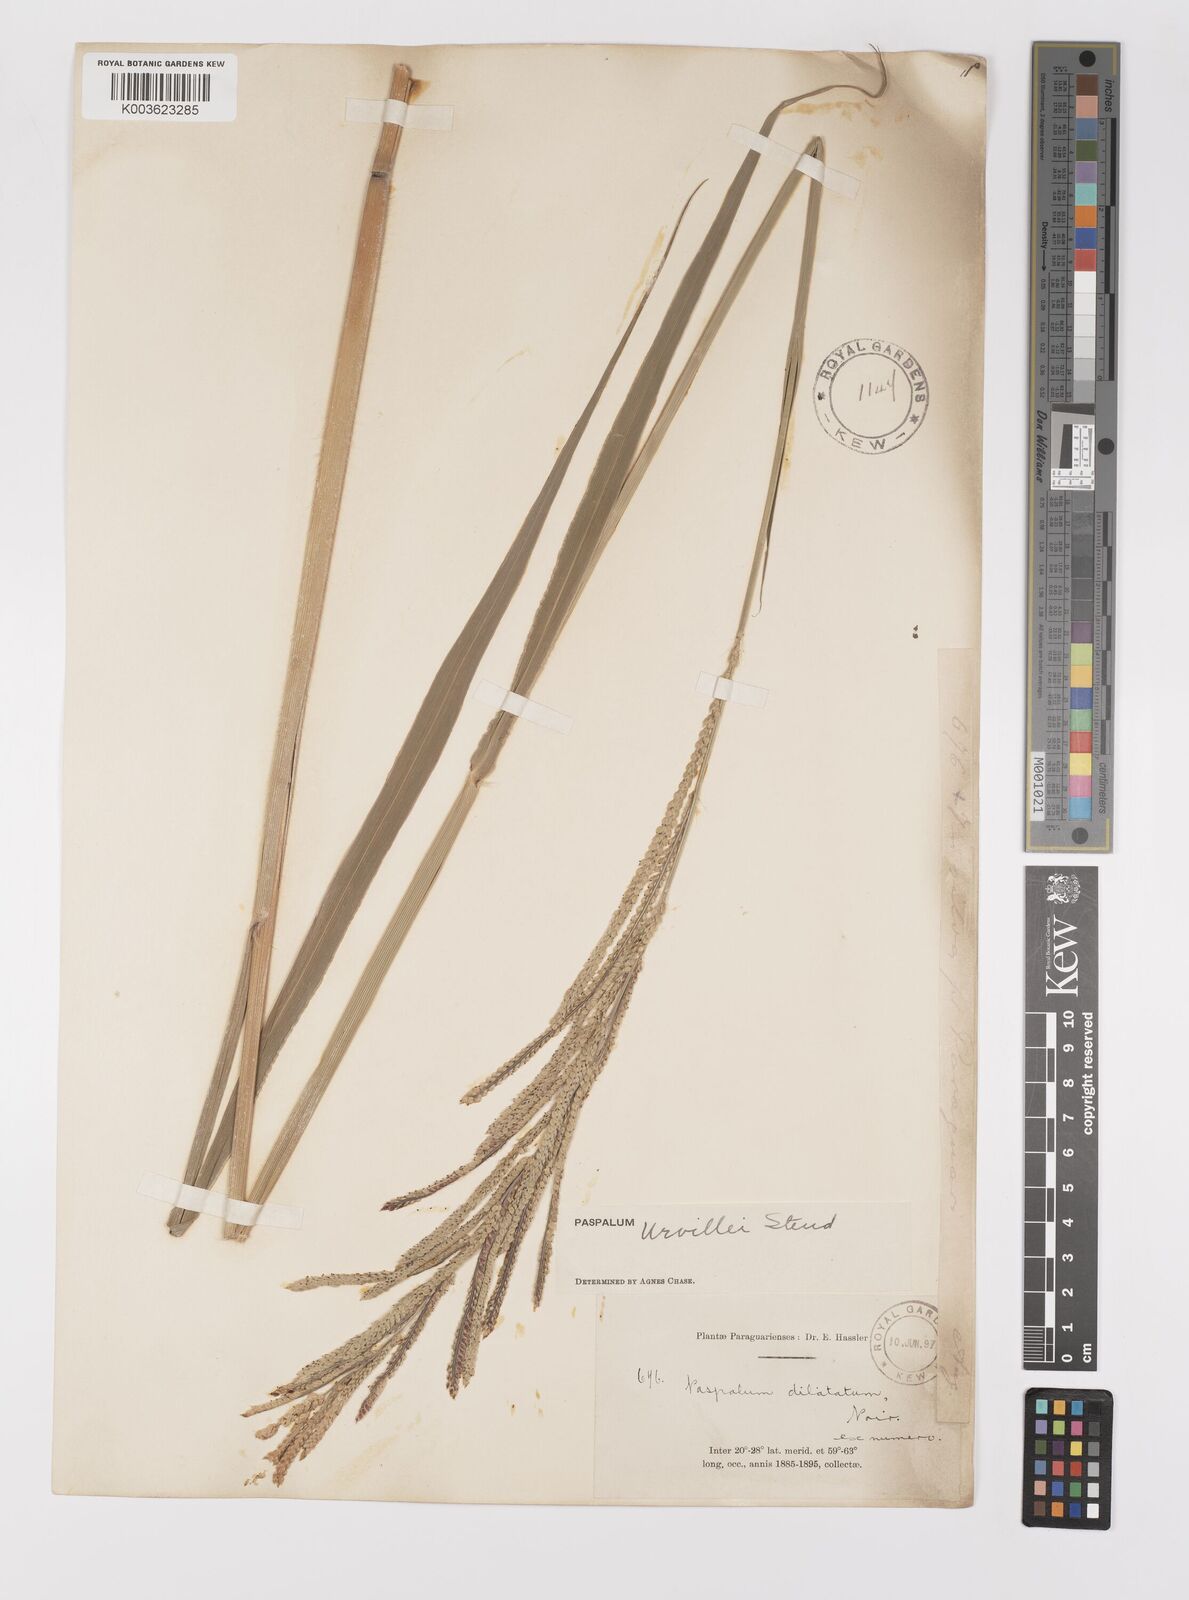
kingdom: Plantae
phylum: Tracheophyta
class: Liliopsida
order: Poales
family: Poaceae
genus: Paspalum
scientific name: Paspalum urvillei
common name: Vasey's grass
